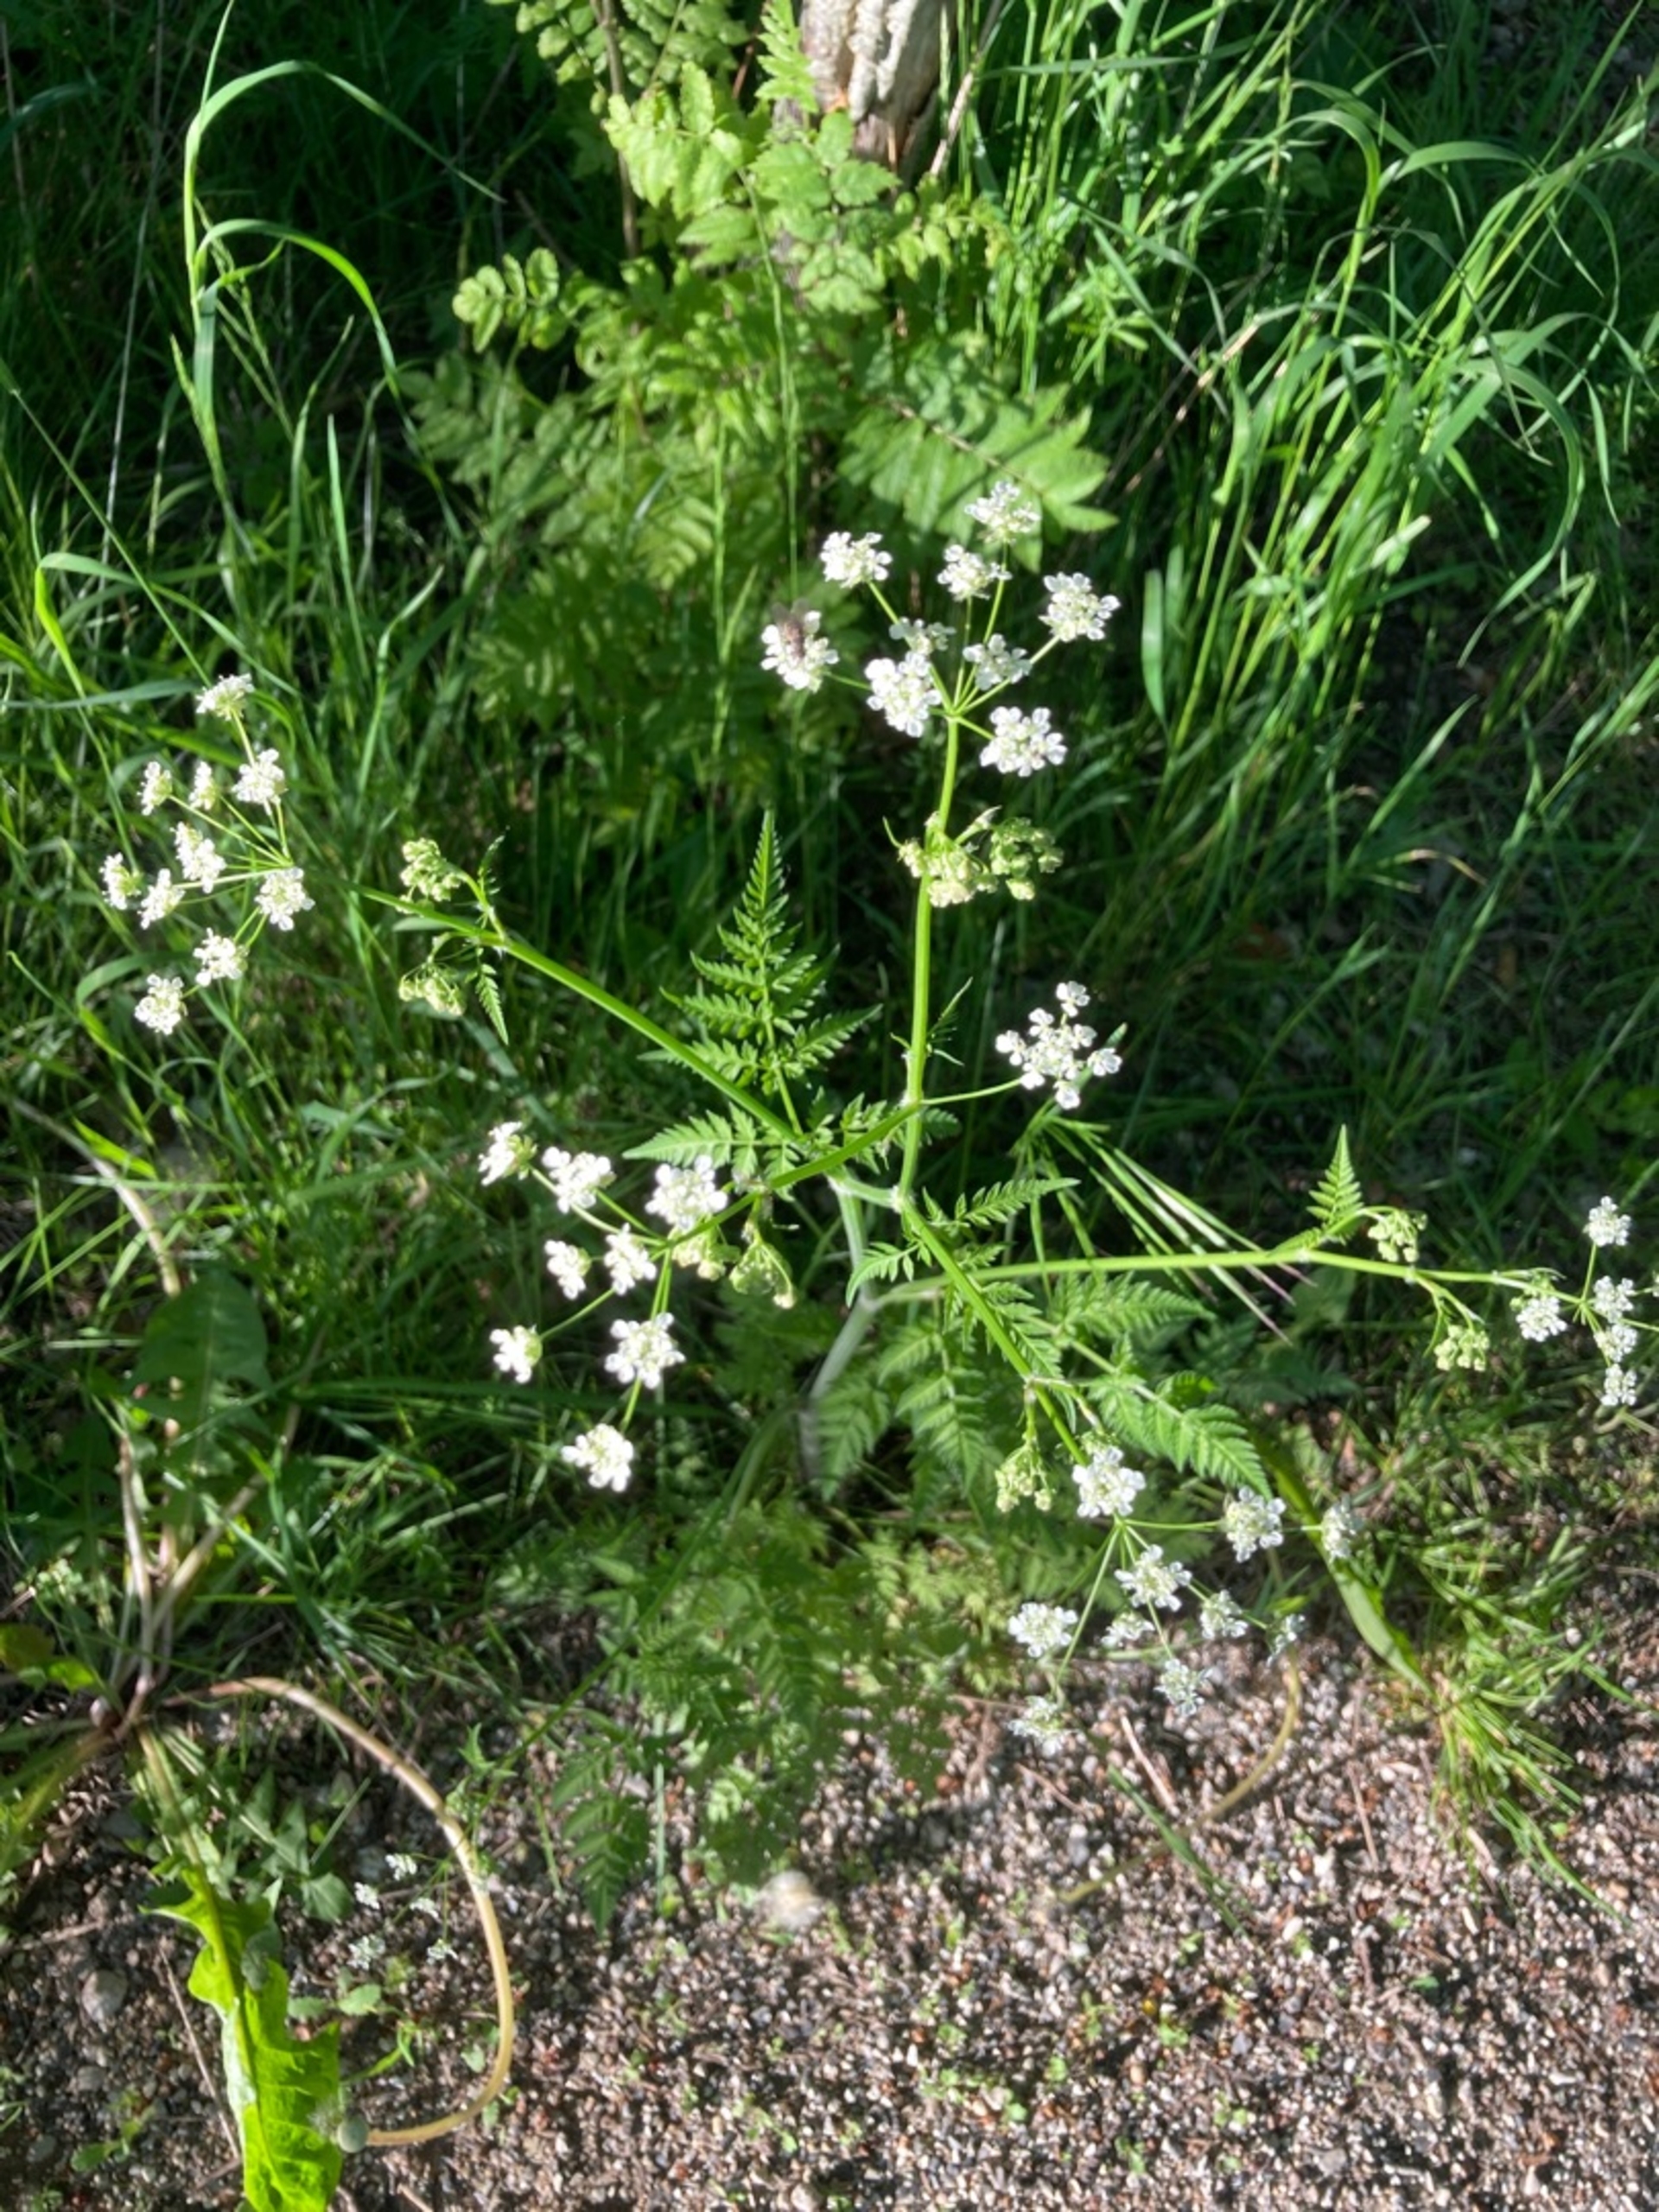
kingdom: Plantae
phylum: Tracheophyta
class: Magnoliopsida
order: Apiales
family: Apiaceae
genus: Anthriscus
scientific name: Anthriscus sylvestris
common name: Vild kørvel
